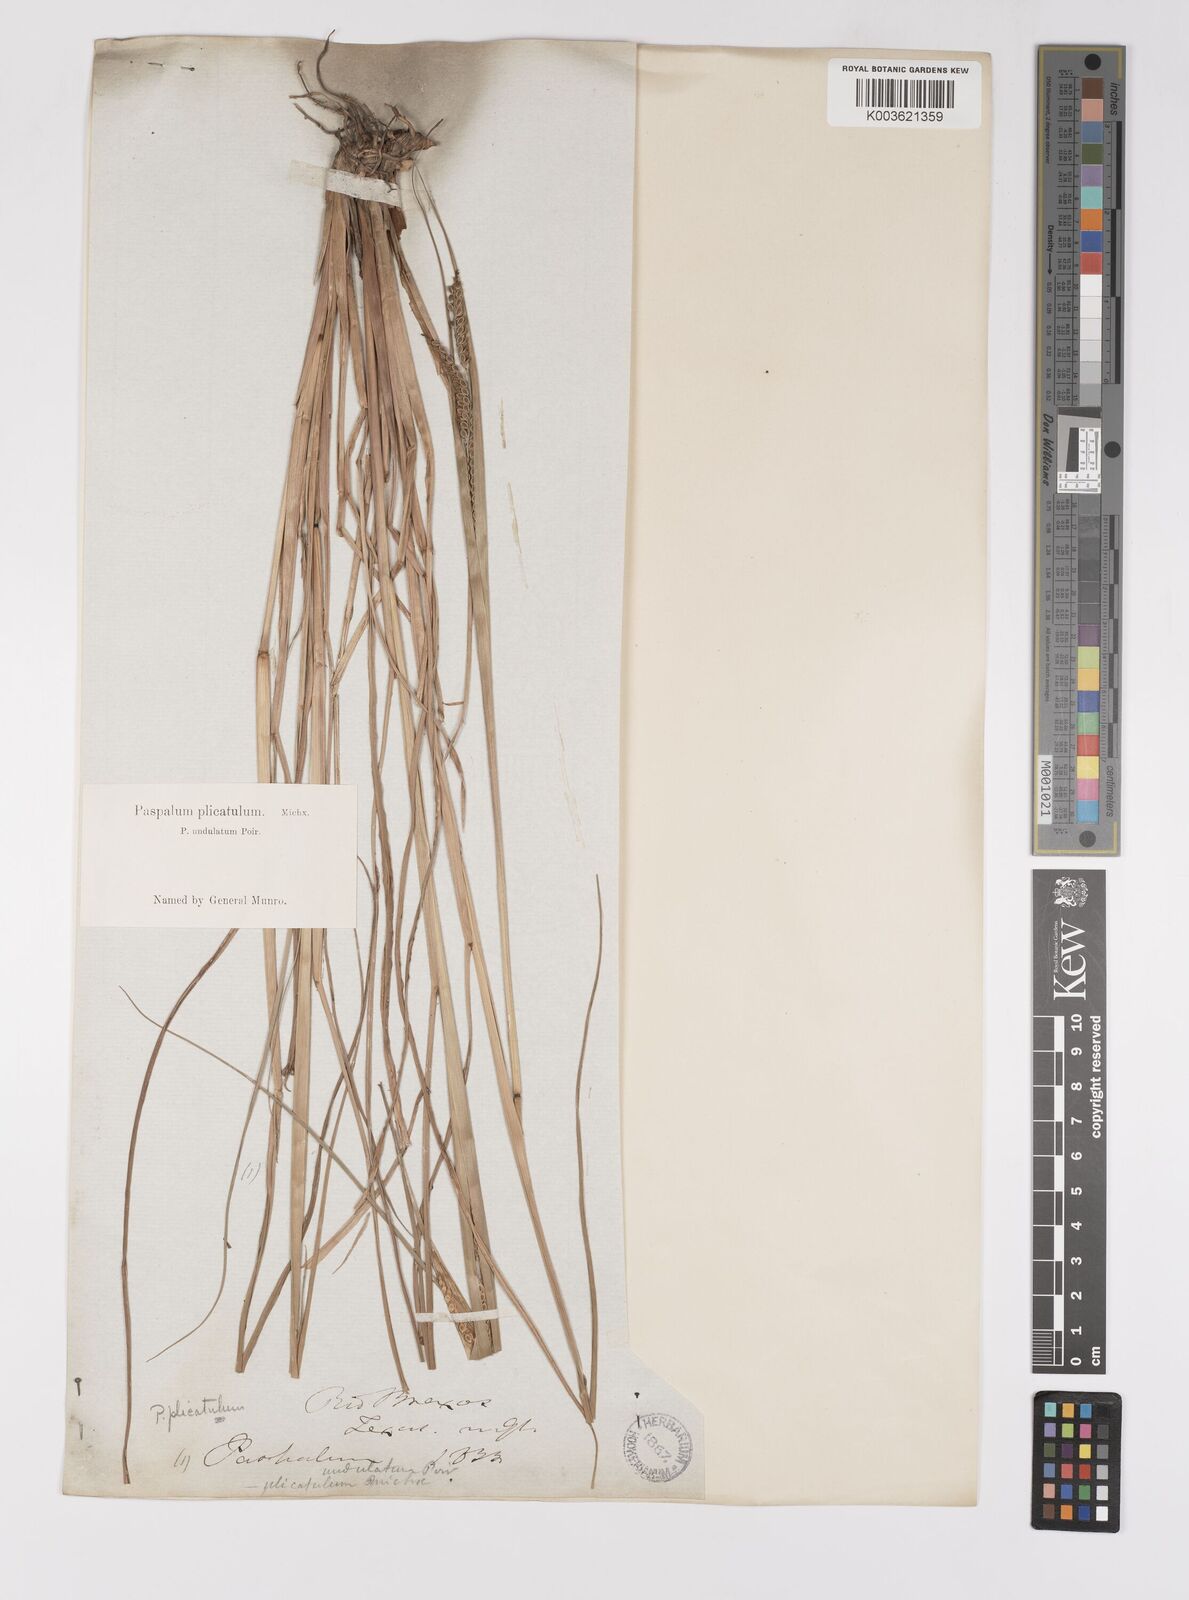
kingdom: Plantae
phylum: Tracheophyta
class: Liliopsida
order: Poales
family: Poaceae
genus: Paspalum
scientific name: Paspalum plicatulum
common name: Top paspalum
